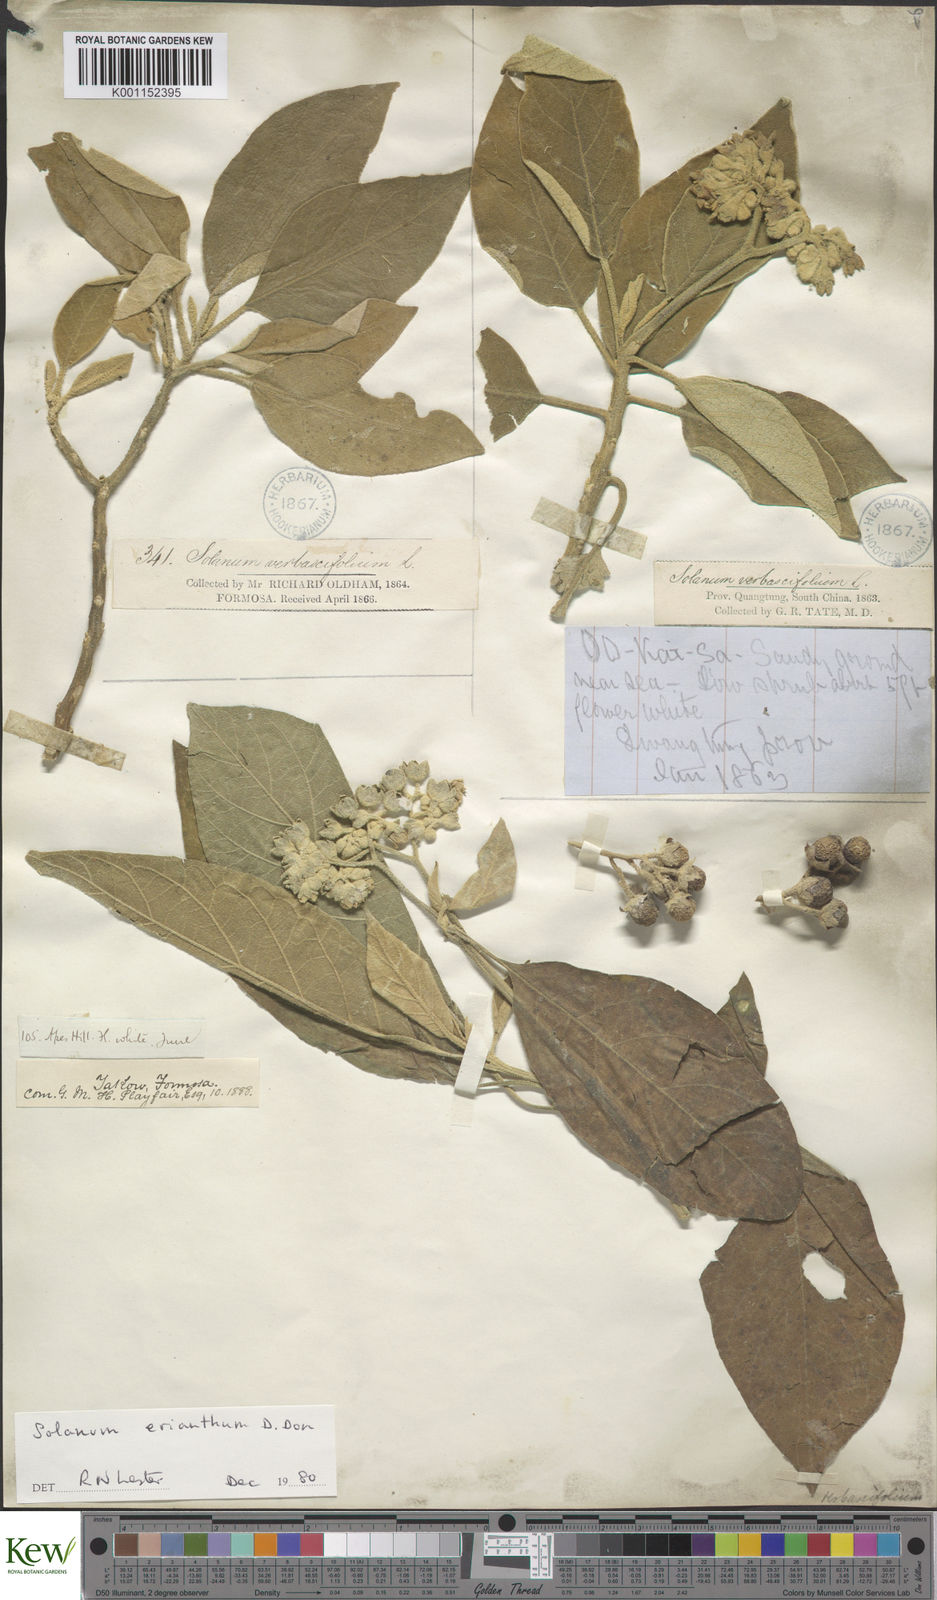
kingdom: Plantae
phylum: Tracheophyta
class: Magnoliopsida
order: Solanales
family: Solanaceae
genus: Solanum
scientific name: Solanum erianthum
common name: Tobacco-tree
